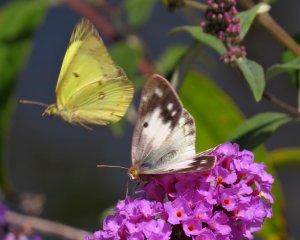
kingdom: Animalia
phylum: Arthropoda
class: Insecta
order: Lepidoptera
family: Pieridae
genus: Colias
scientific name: Colias philodice
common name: Clouded Sulphur
